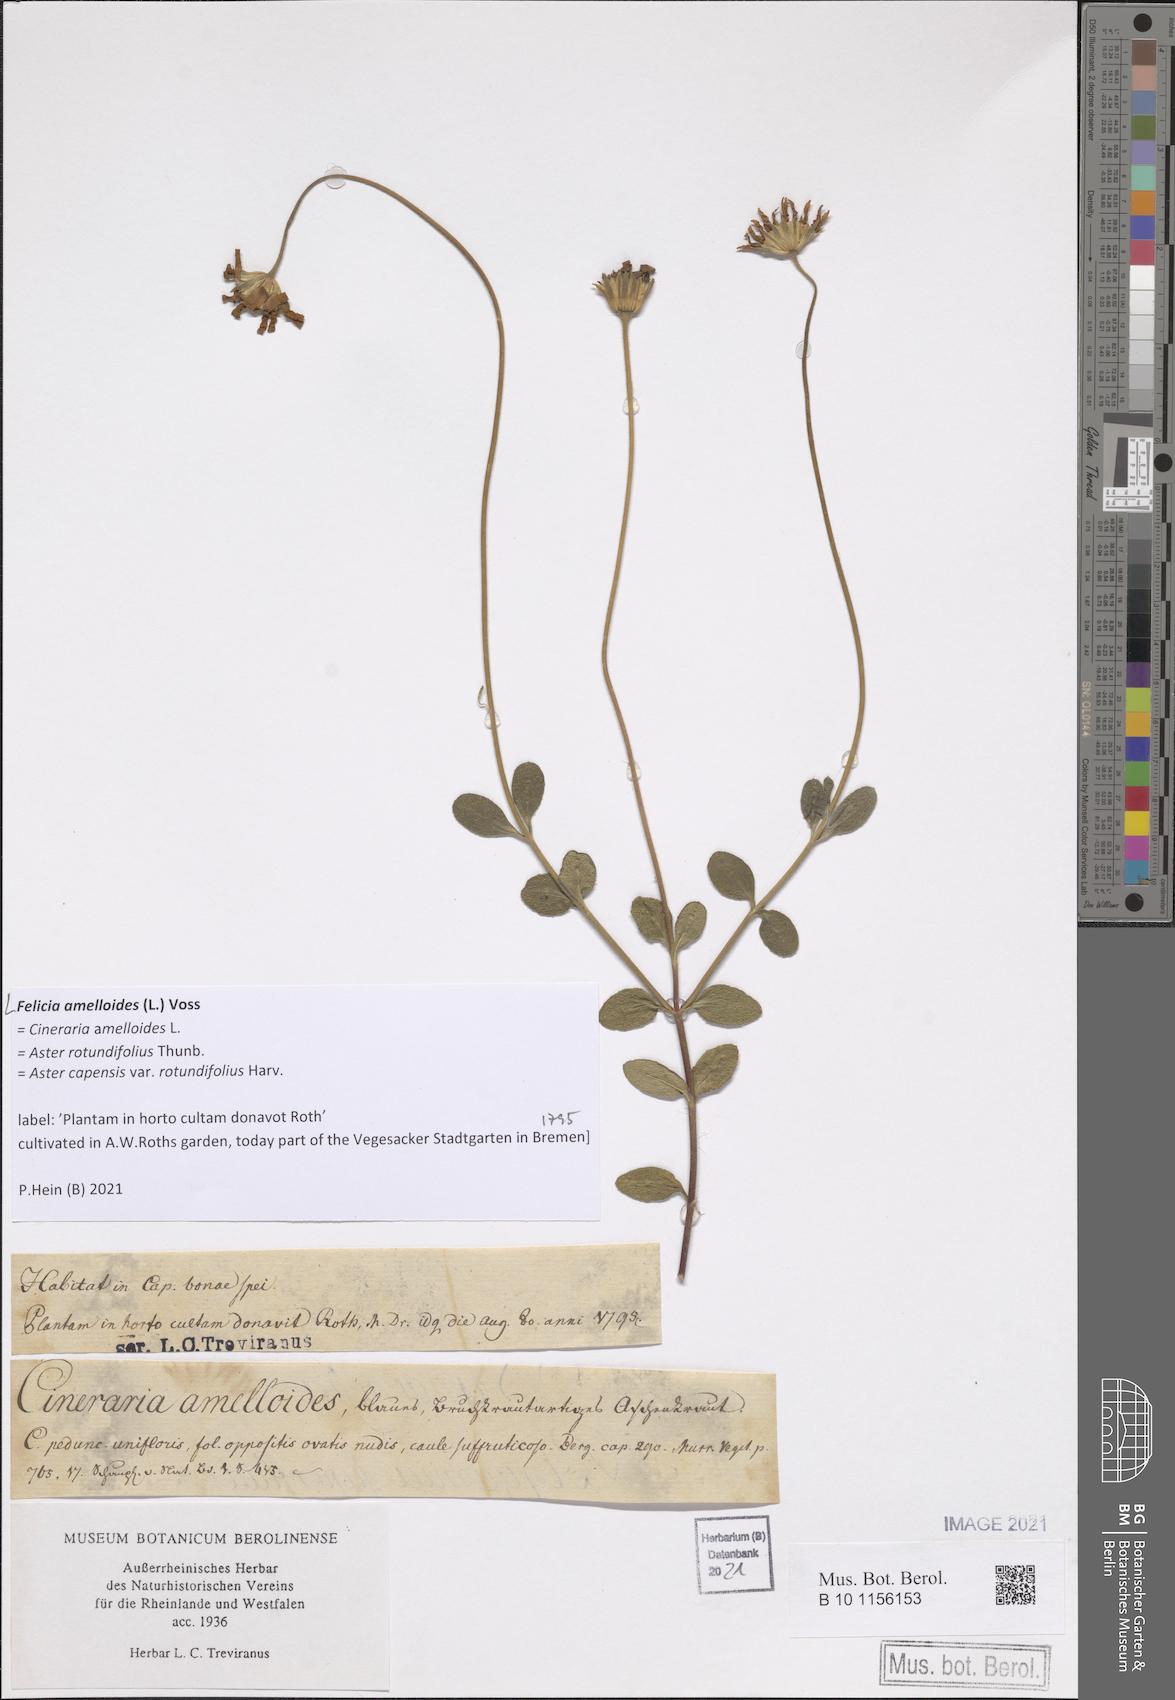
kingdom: Plantae
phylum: Tracheophyta
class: Magnoliopsida
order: Asterales
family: Asteraceae
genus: Felicia
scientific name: Felicia amelloides
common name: Blue marguerite
